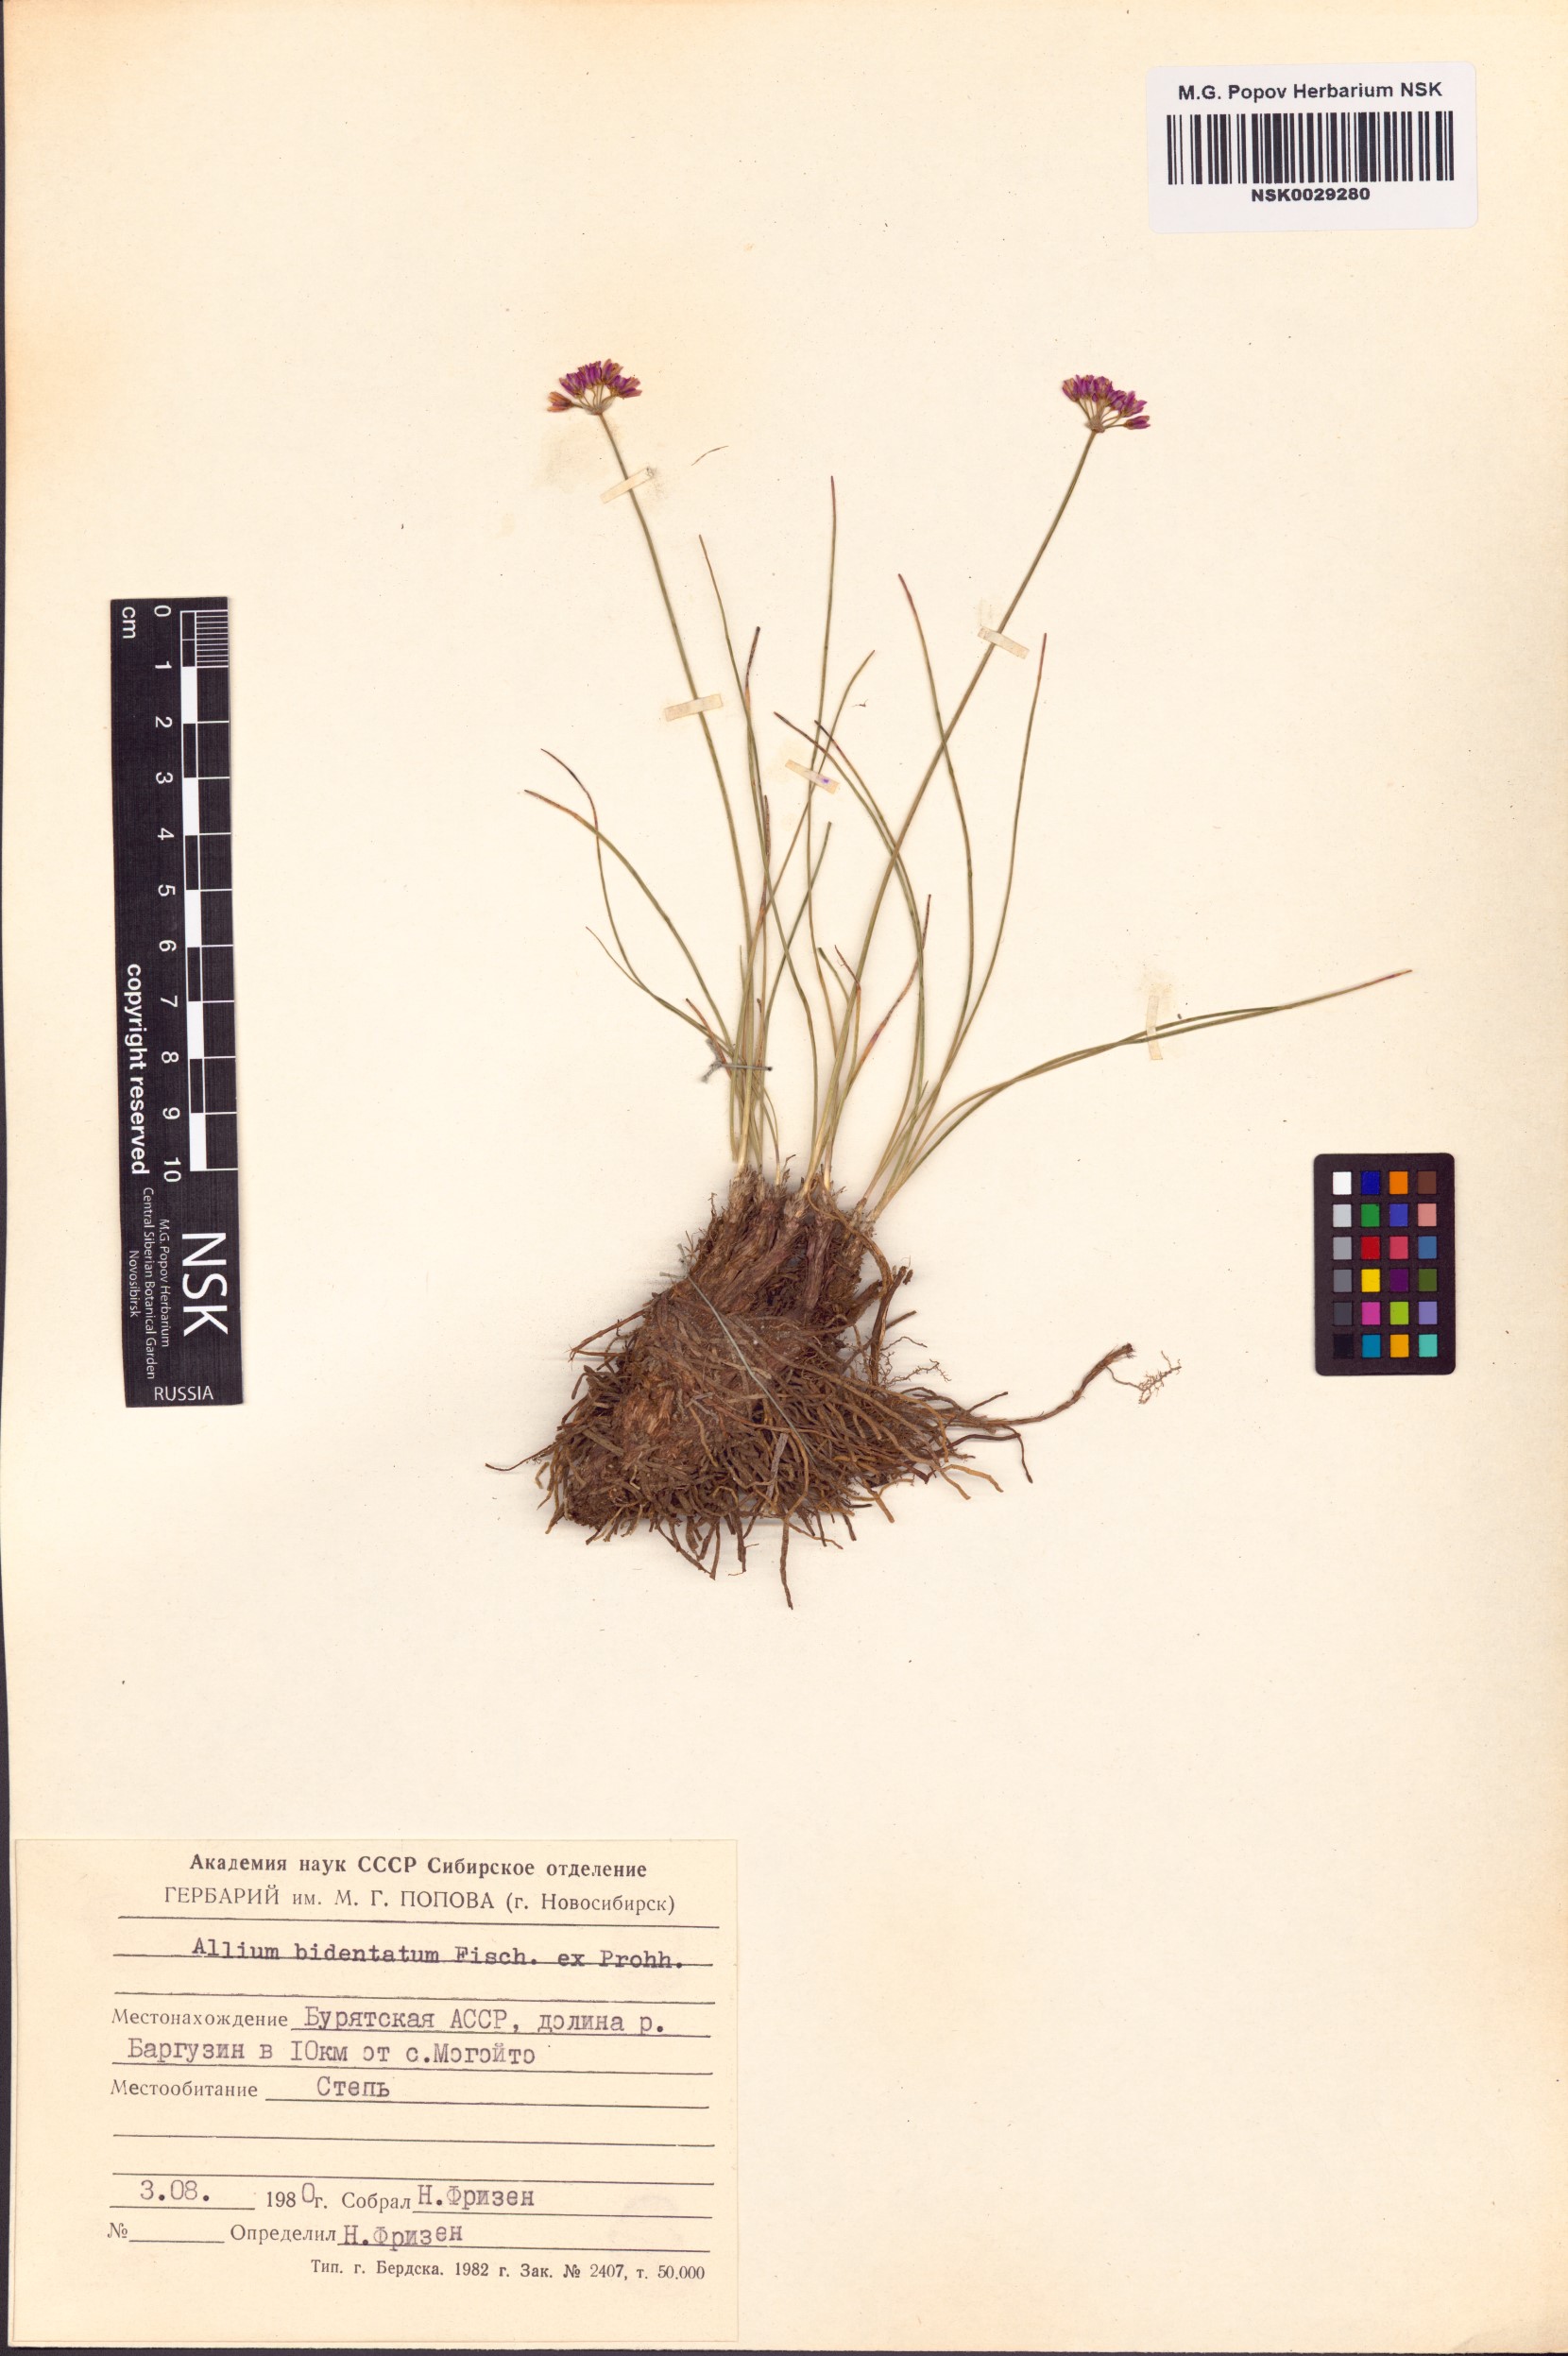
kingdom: Plantae
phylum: Tracheophyta
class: Liliopsida
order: Asparagales
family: Amaryllidaceae
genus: Allium
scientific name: Allium bidentatum
